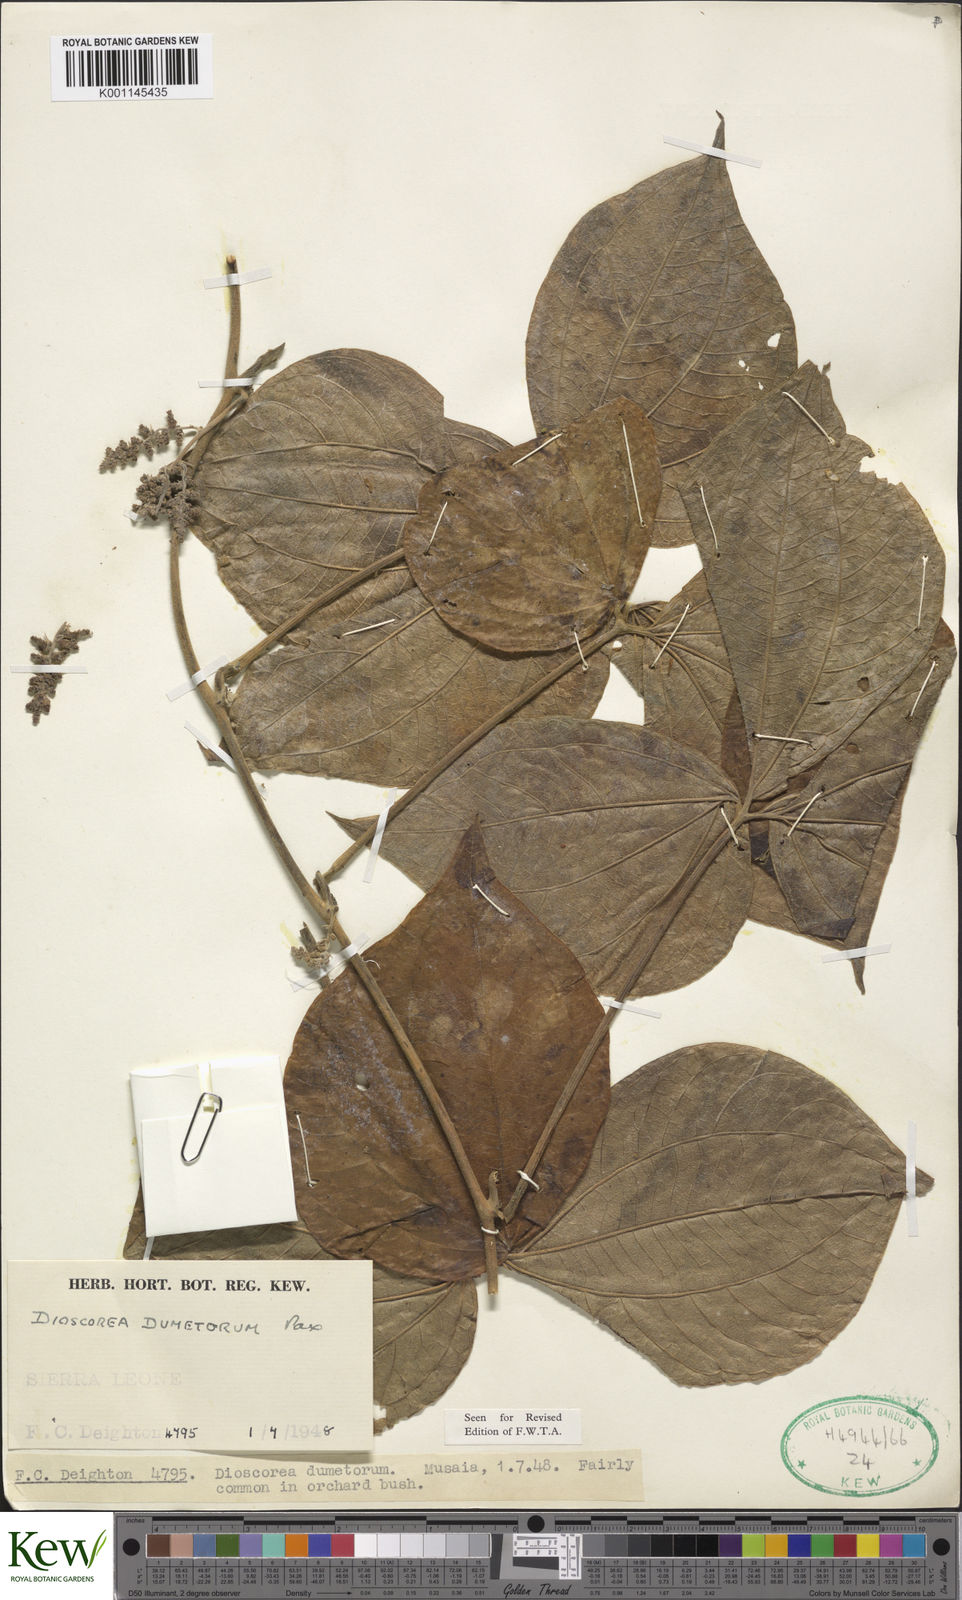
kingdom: Plantae
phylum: Tracheophyta
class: Liliopsida
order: Dioscoreales
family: Dioscoreaceae
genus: Dioscorea
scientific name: Dioscorea dumetorum
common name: African bitter yam
